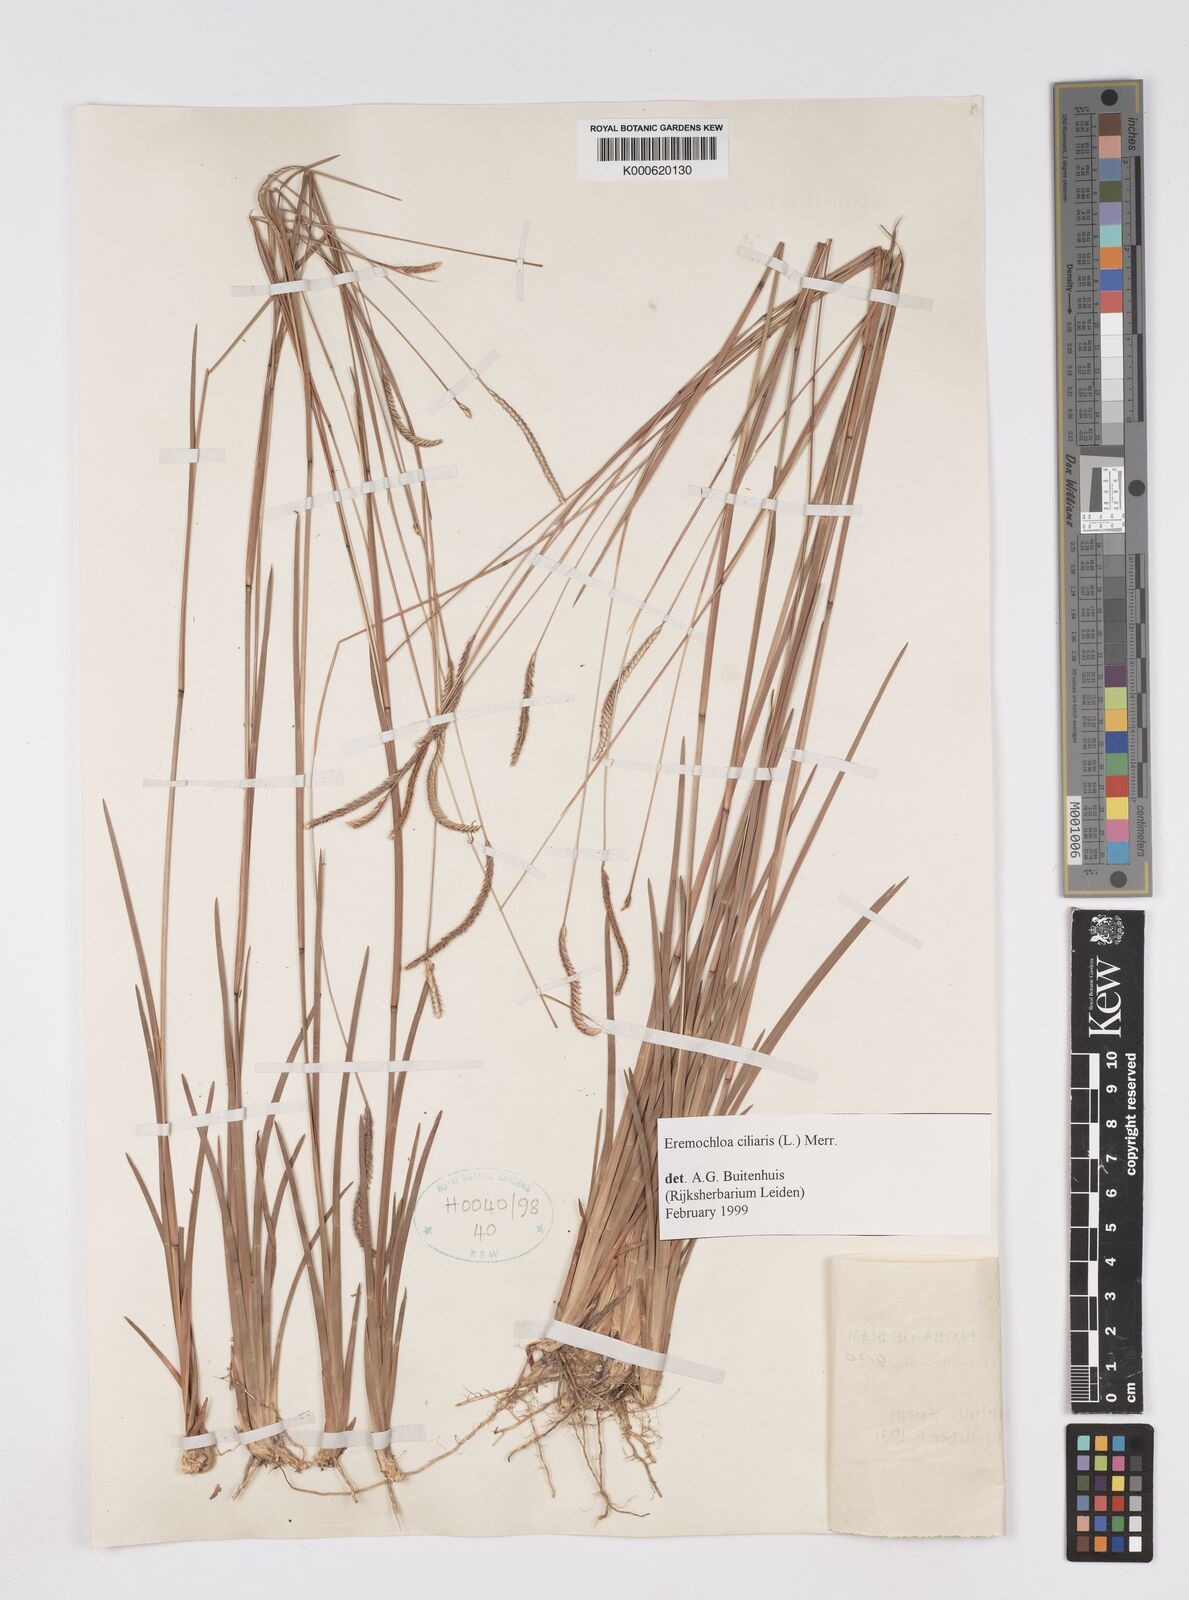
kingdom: Plantae
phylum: Tracheophyta
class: Liliopsida
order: Poales
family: Poaceae
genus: Eremochloa
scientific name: Eremochloa ciliaris
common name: Fringed centipede grass
